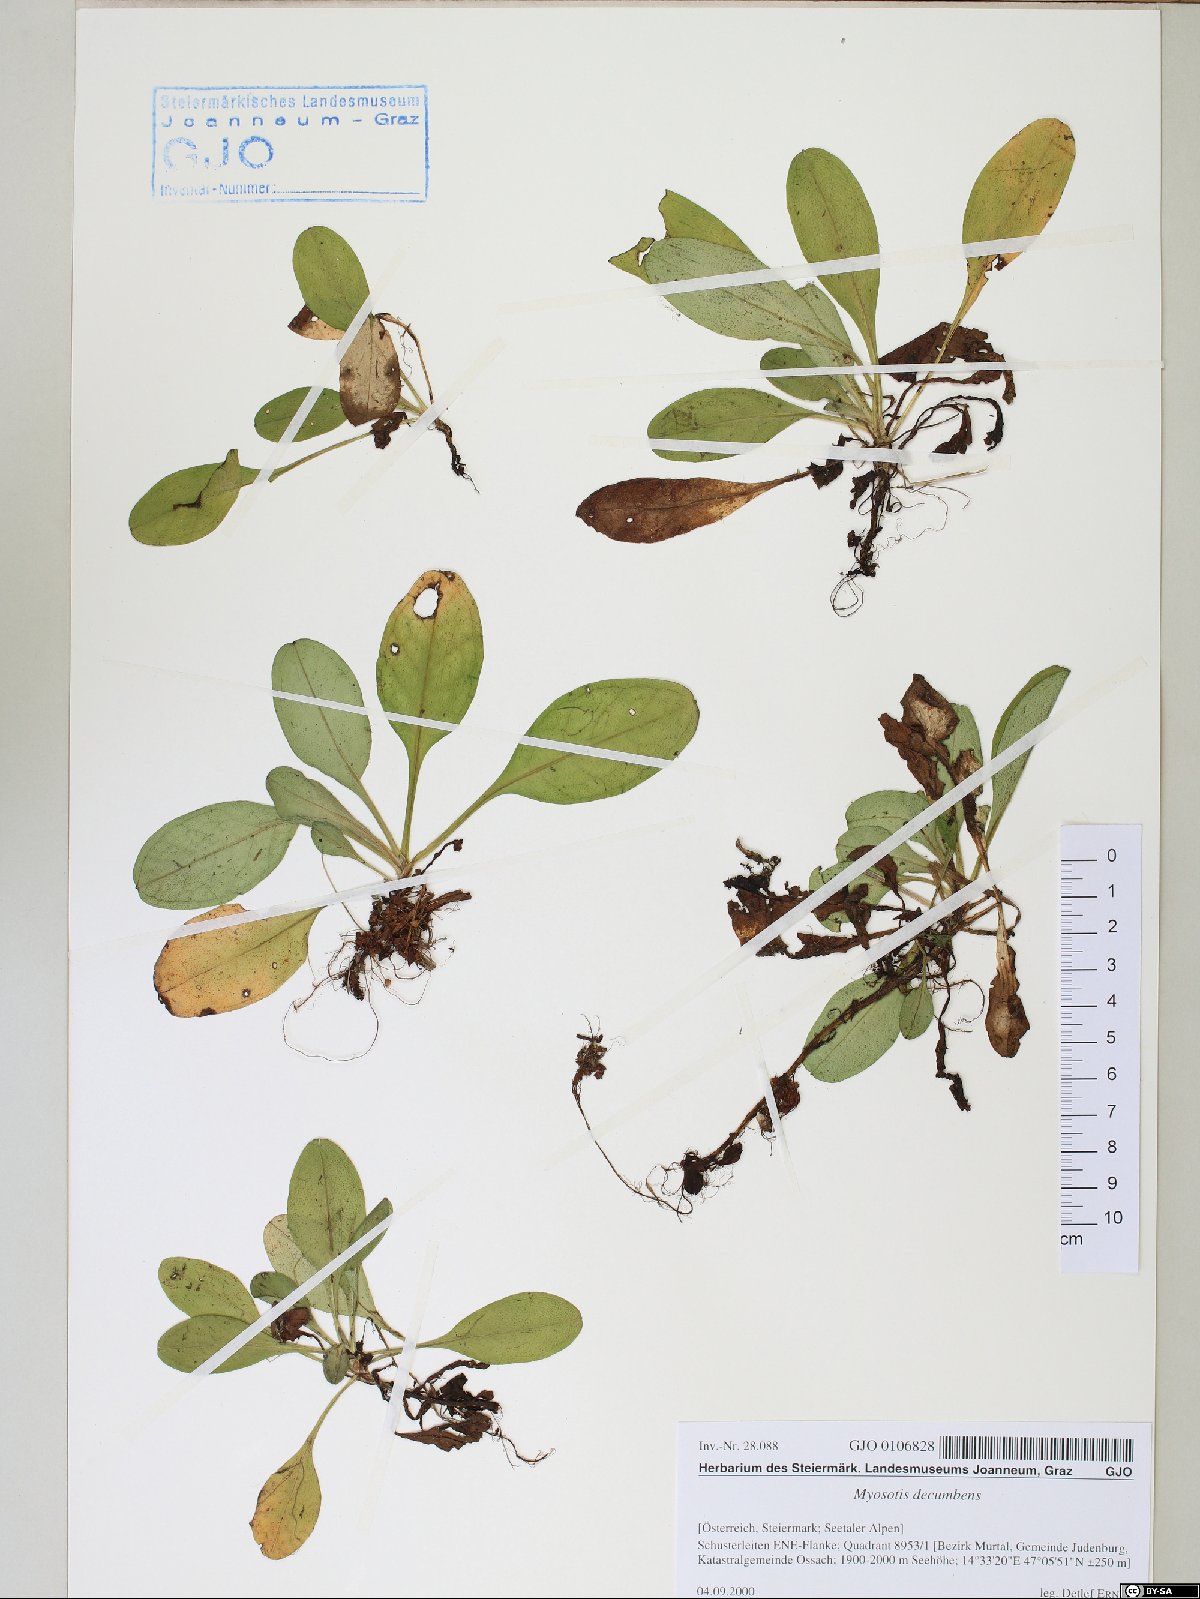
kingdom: Plantae
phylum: Tracheophyta
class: Magnoliopsida
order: Boraginales
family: Boraginaceae
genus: Myosotis
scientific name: Myosotis decumbens
